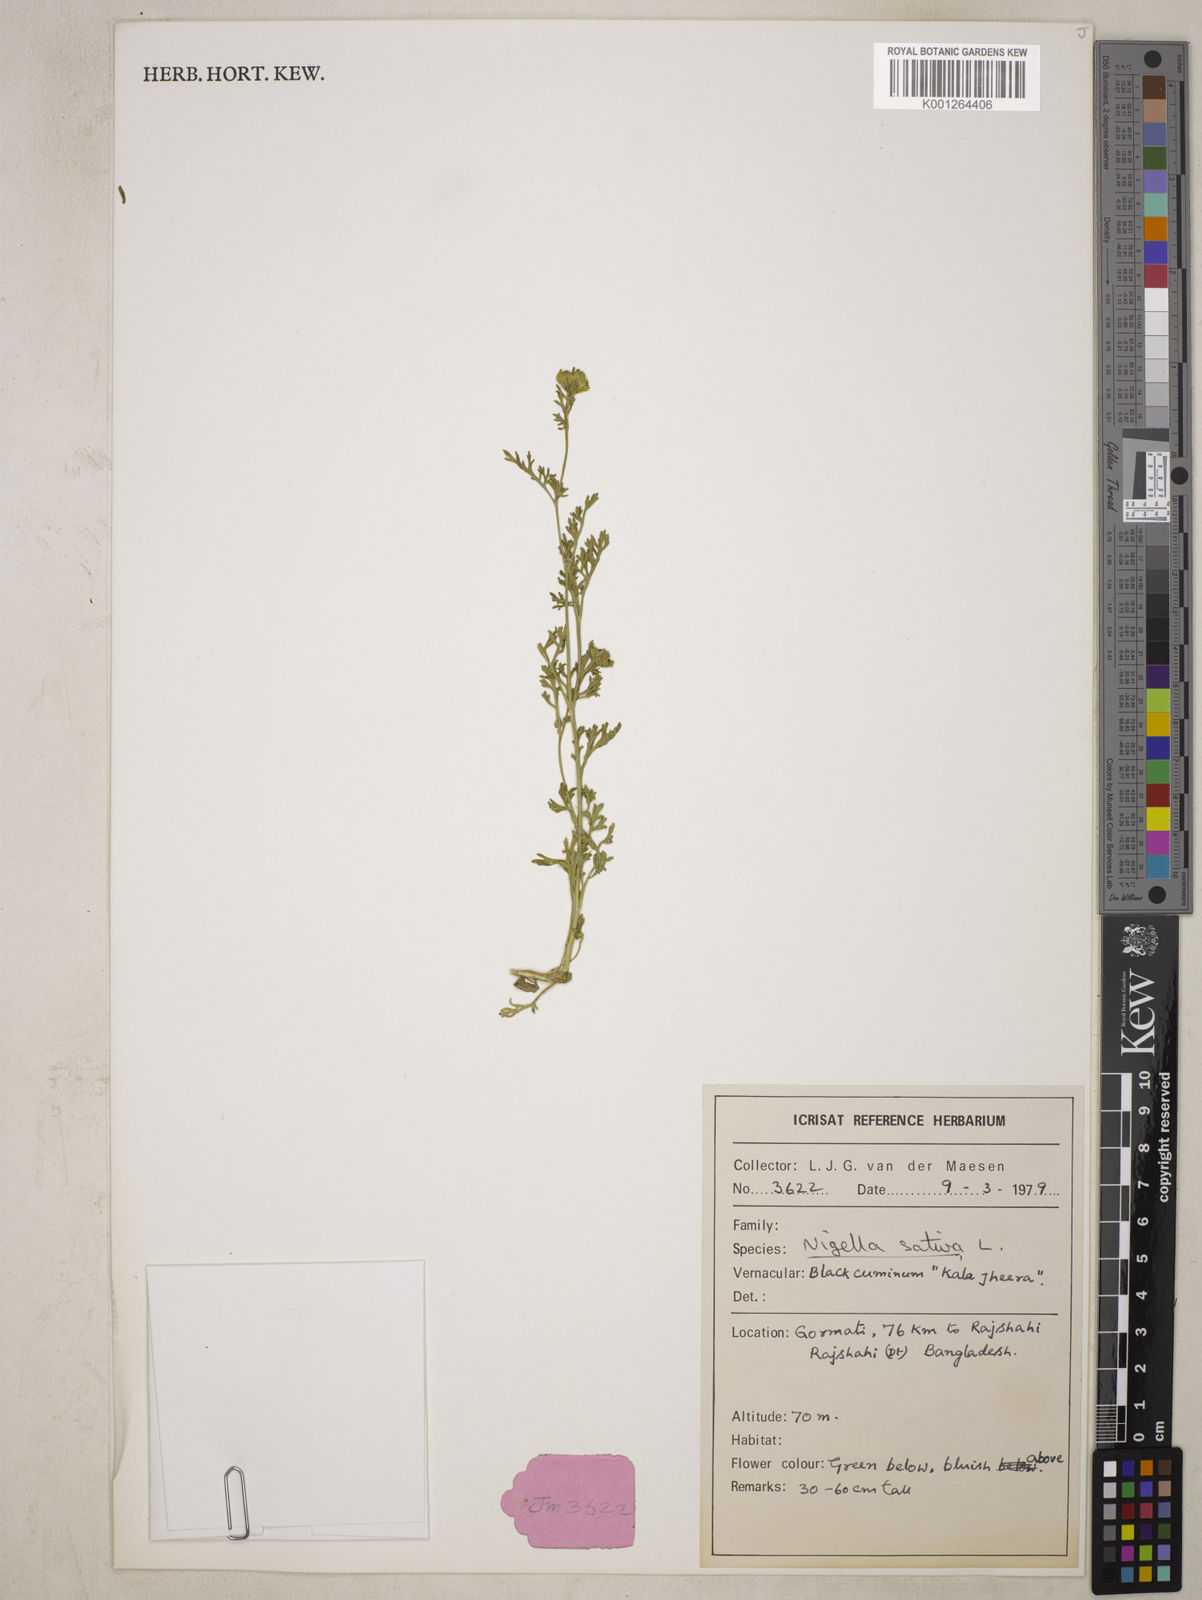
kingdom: Plantae
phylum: Tracheophyta
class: Magnoliopsida
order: Ranunculales
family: Ranunculaceae
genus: Nigella
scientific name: Nigella sativa
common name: Black-cumin
